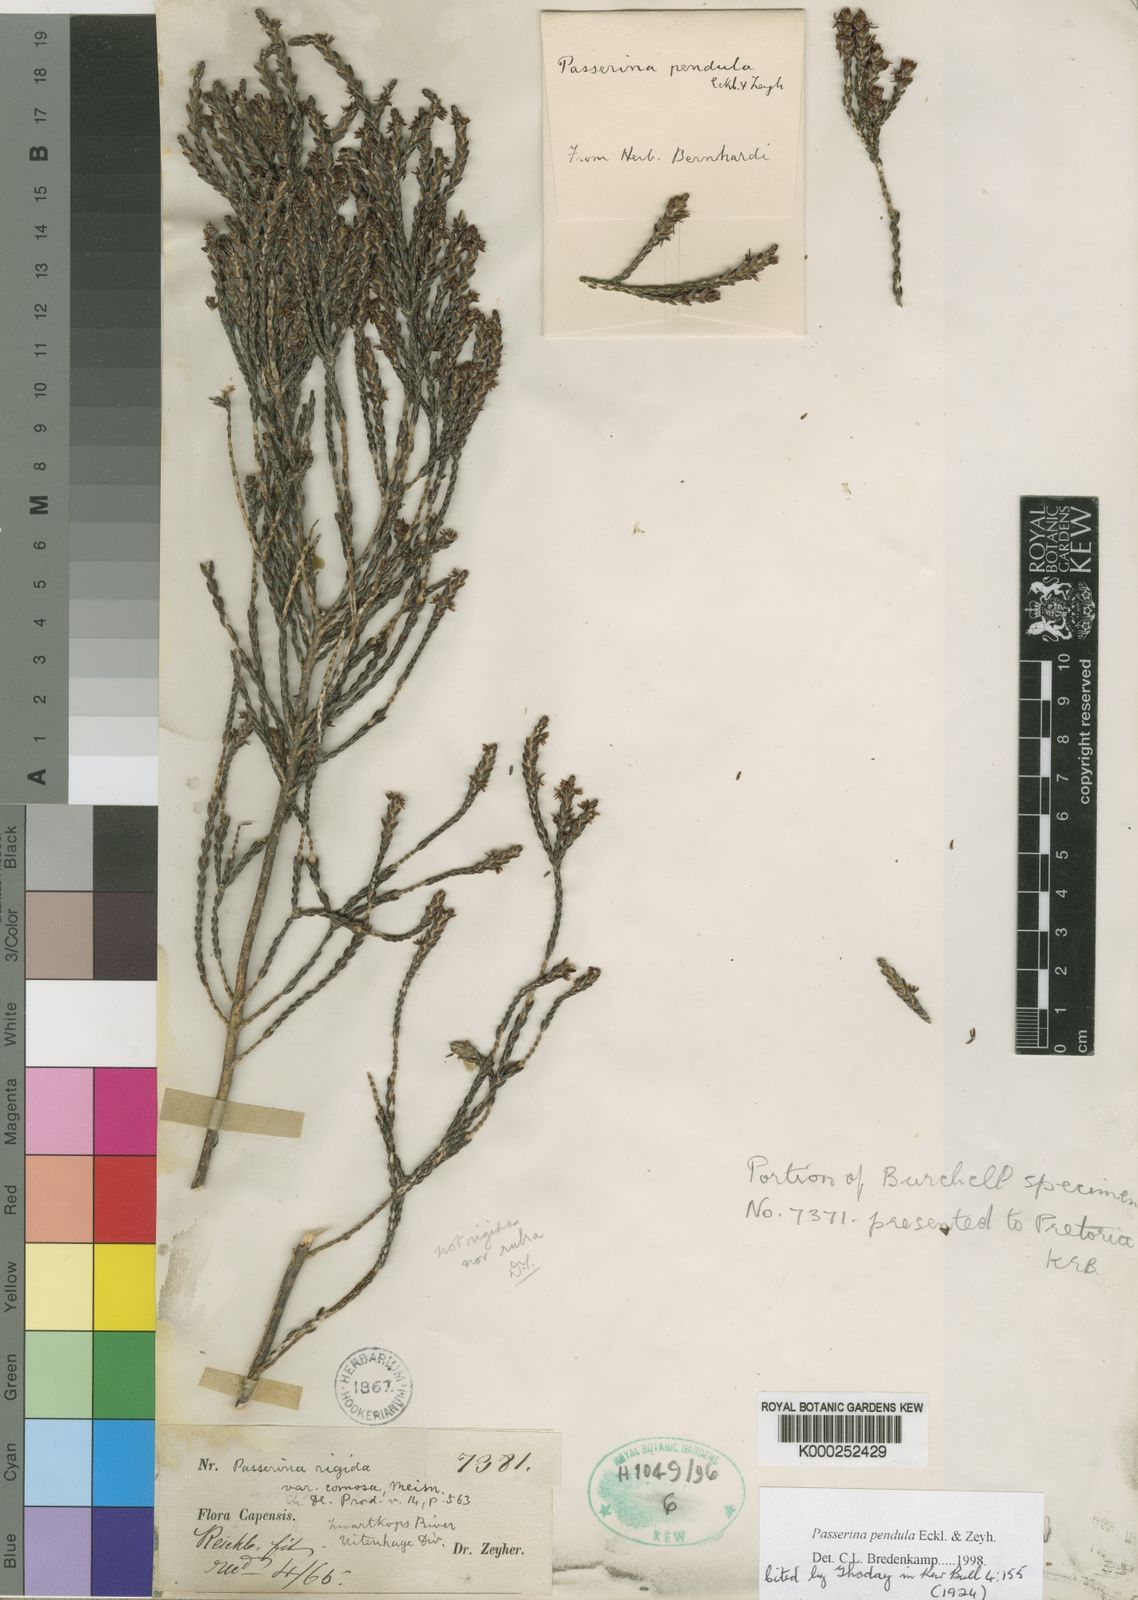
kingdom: Plantae
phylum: Tracheophyta
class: Magnoliopsida
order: Malvales
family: Thymelaeaceae
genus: Passerina
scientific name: Passerina
